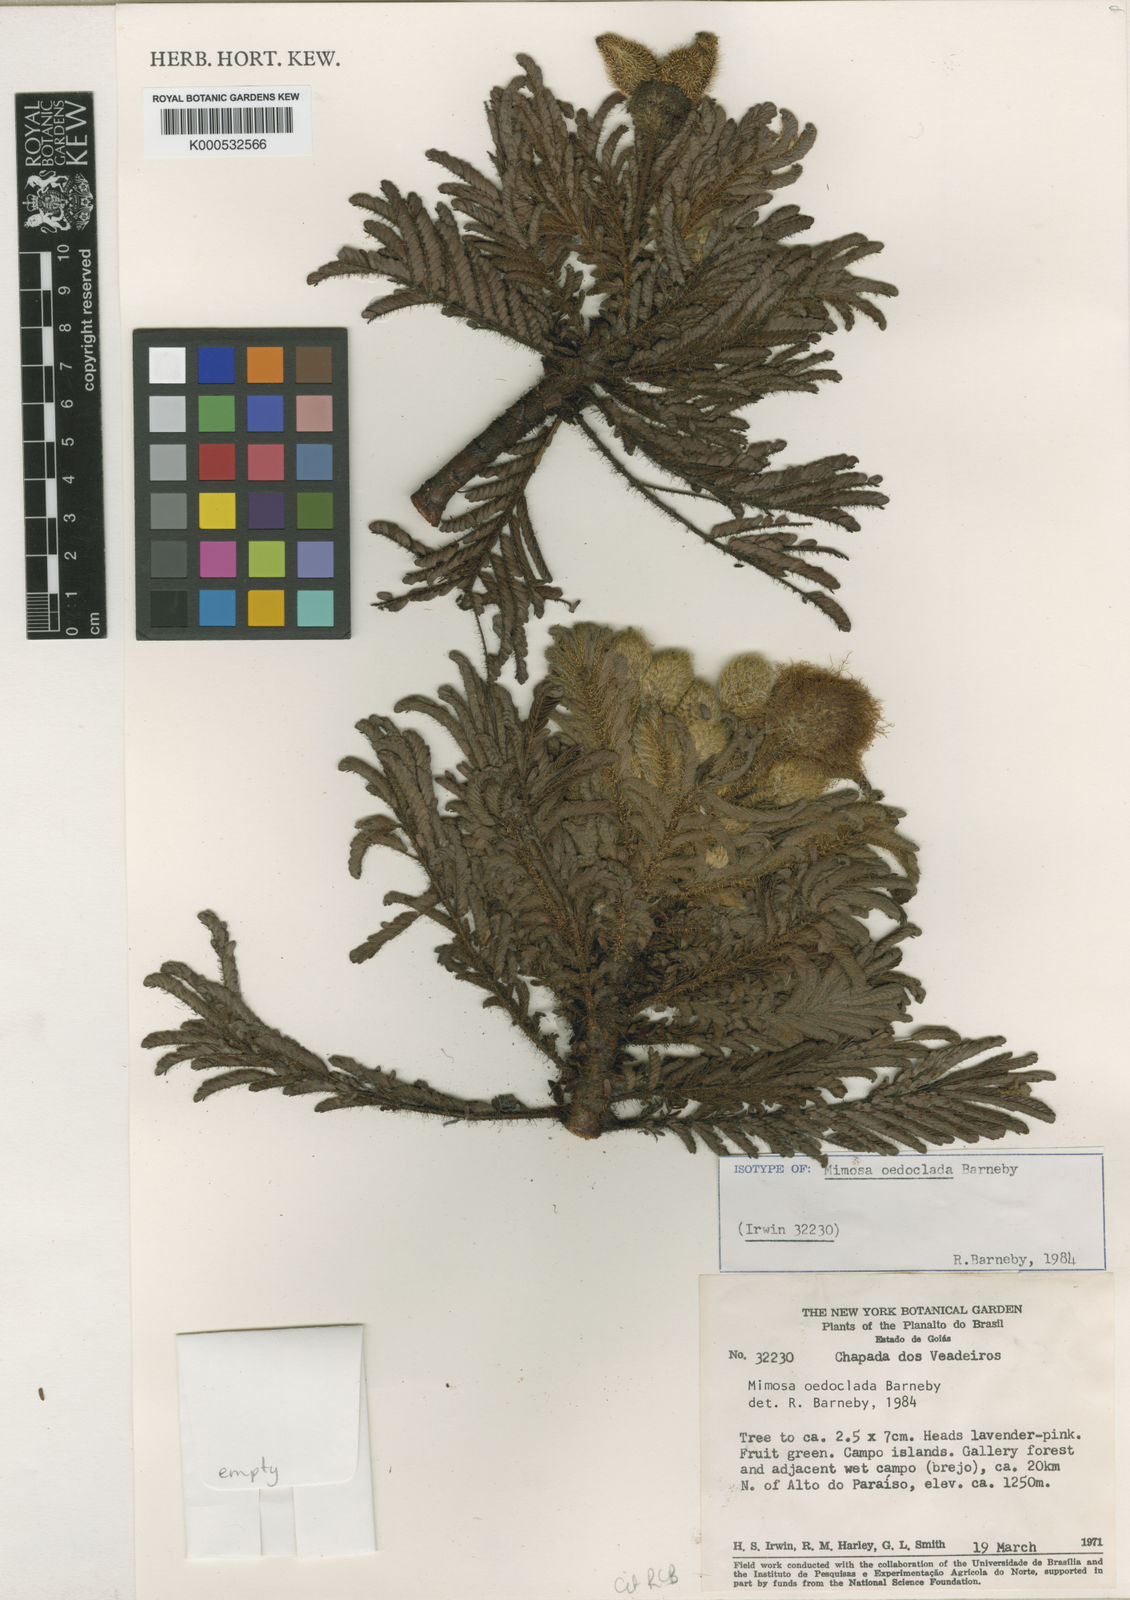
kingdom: Plantae
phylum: Tracheophyta
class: Magnoliopsida
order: Fabales
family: Fabaceae
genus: Mimosa
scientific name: Mimosa oedoclada
